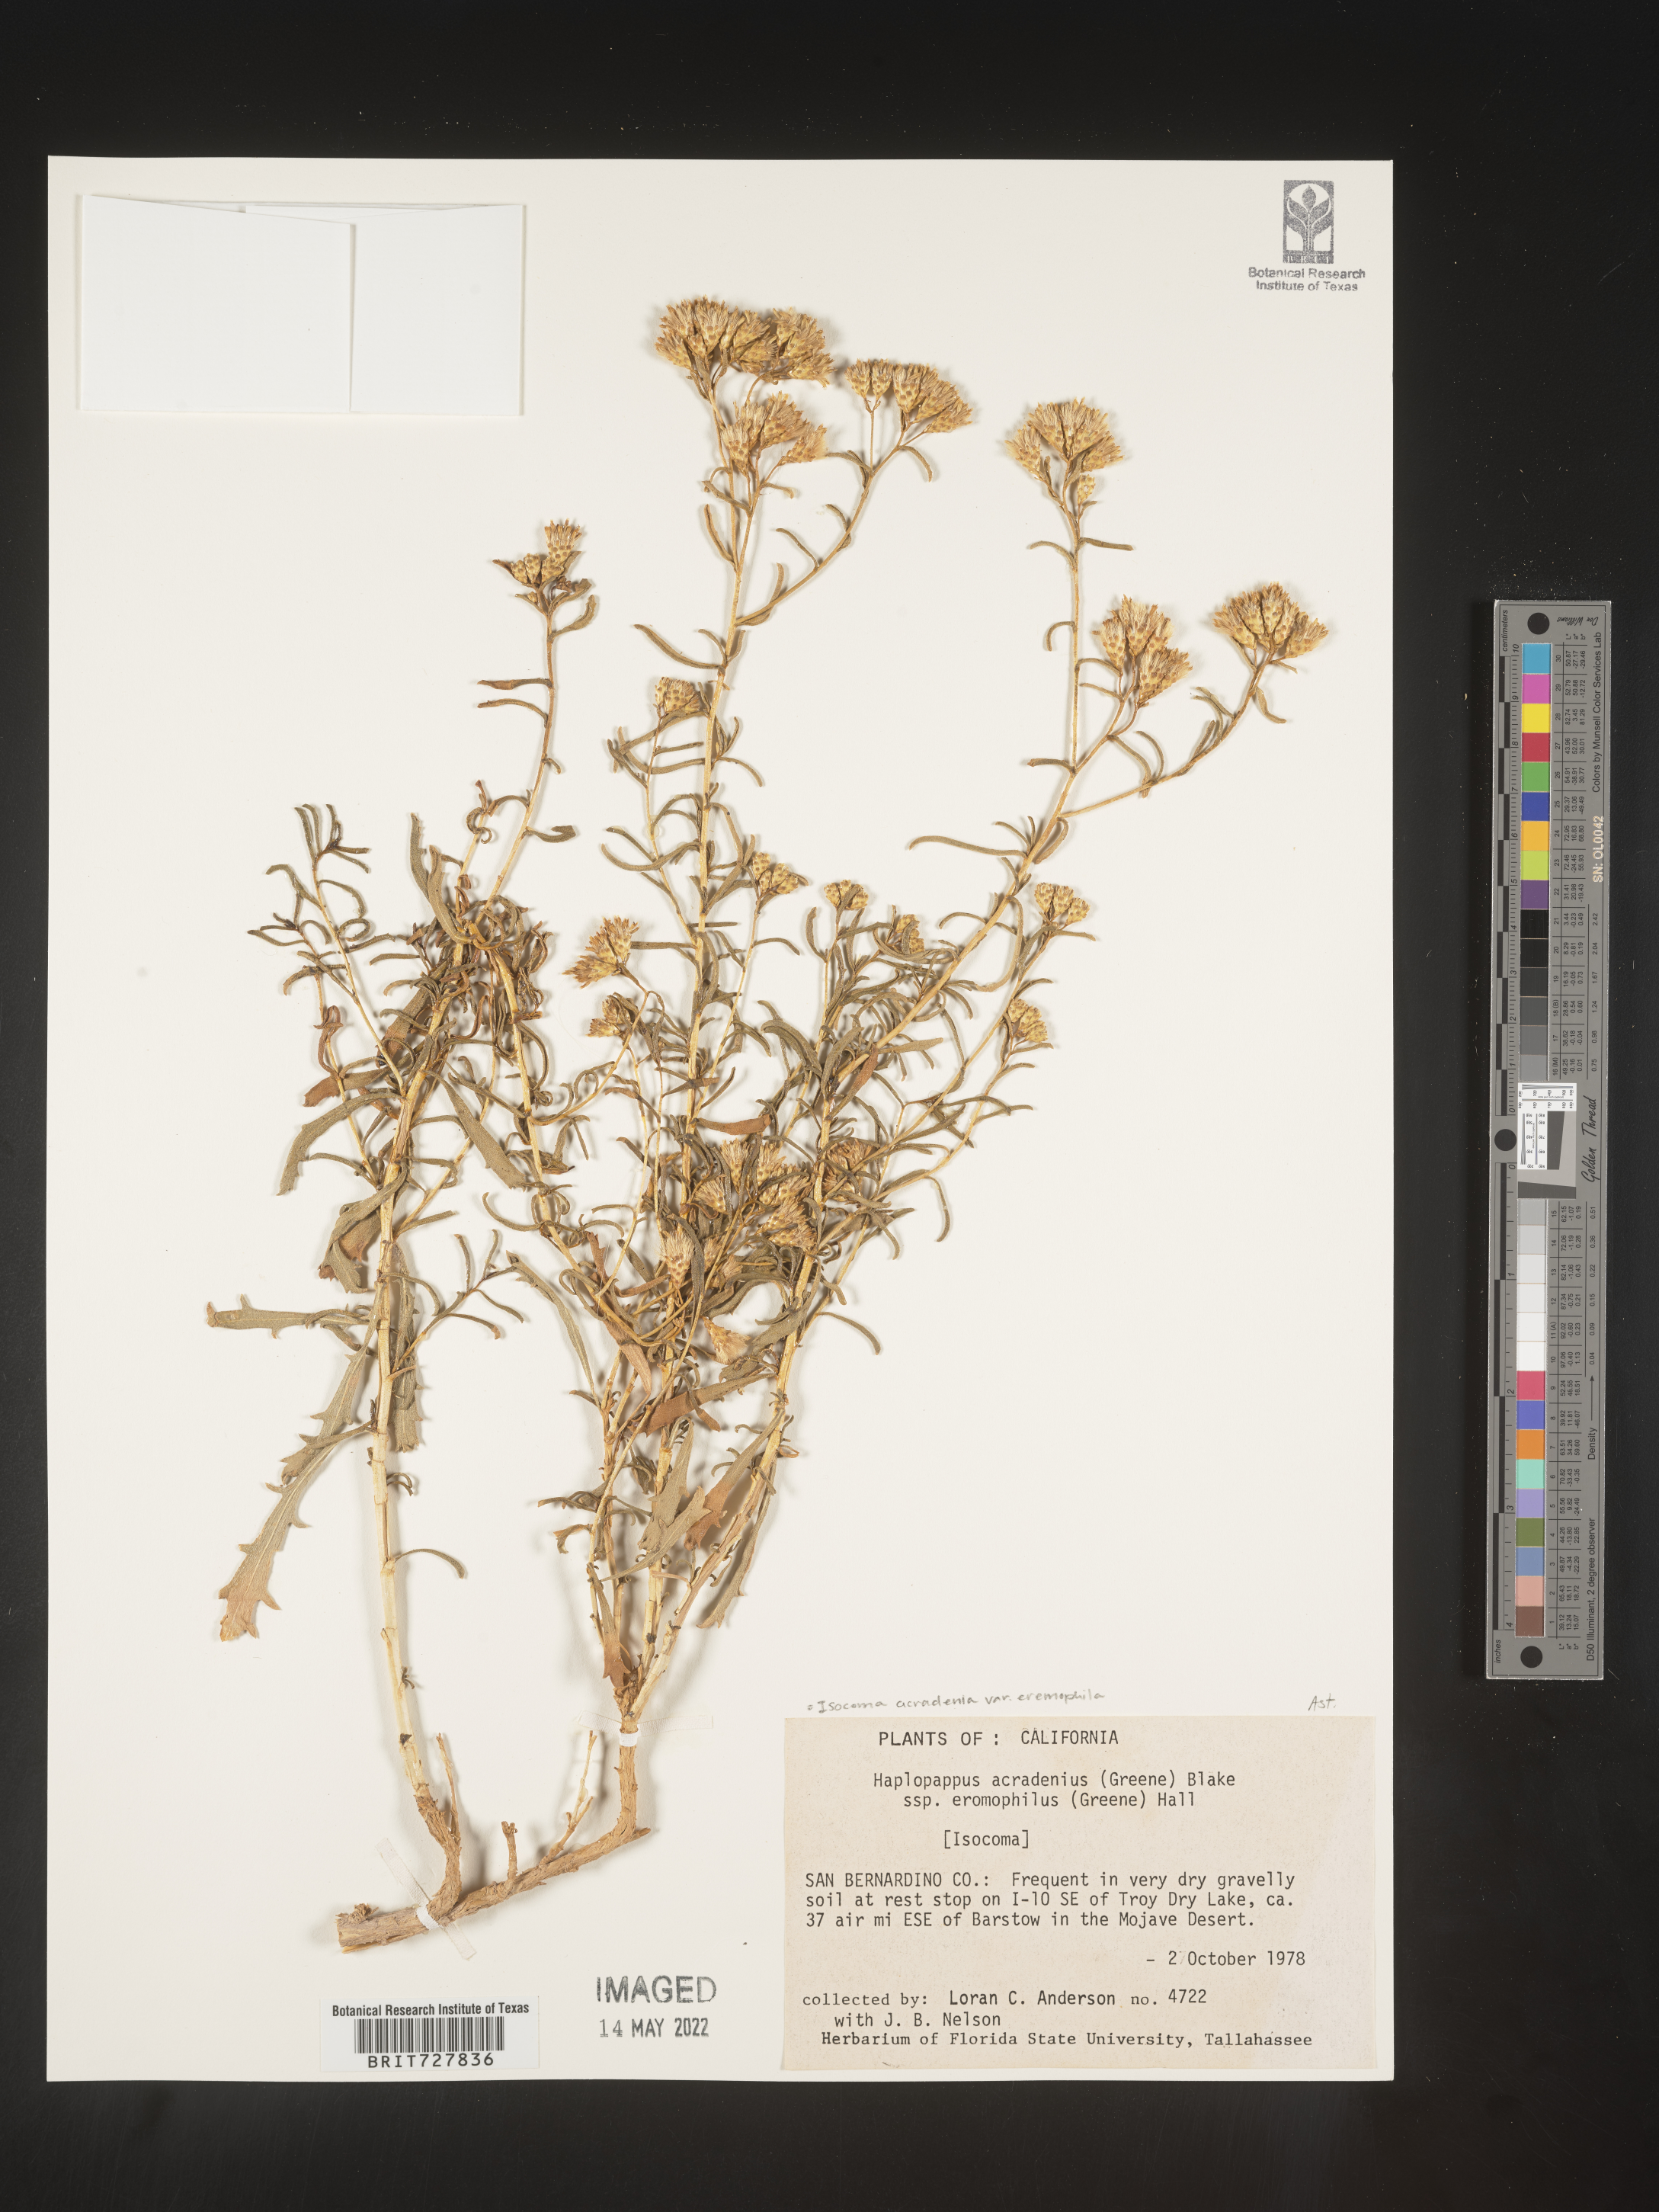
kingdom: Plantae
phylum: Tracheophyta
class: Magnoliopsida
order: Asterales
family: Asteraceae
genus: Isocoma
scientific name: Isocoma acradenia
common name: Alkali jimmyweed
